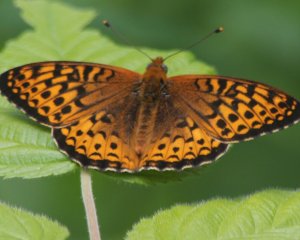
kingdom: Animalia
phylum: Arthropoda
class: Insecta
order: Lepidoptera
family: Nymphalidae
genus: Speyeria
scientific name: Speyeria atlantis
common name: Atlantis Fritillary
